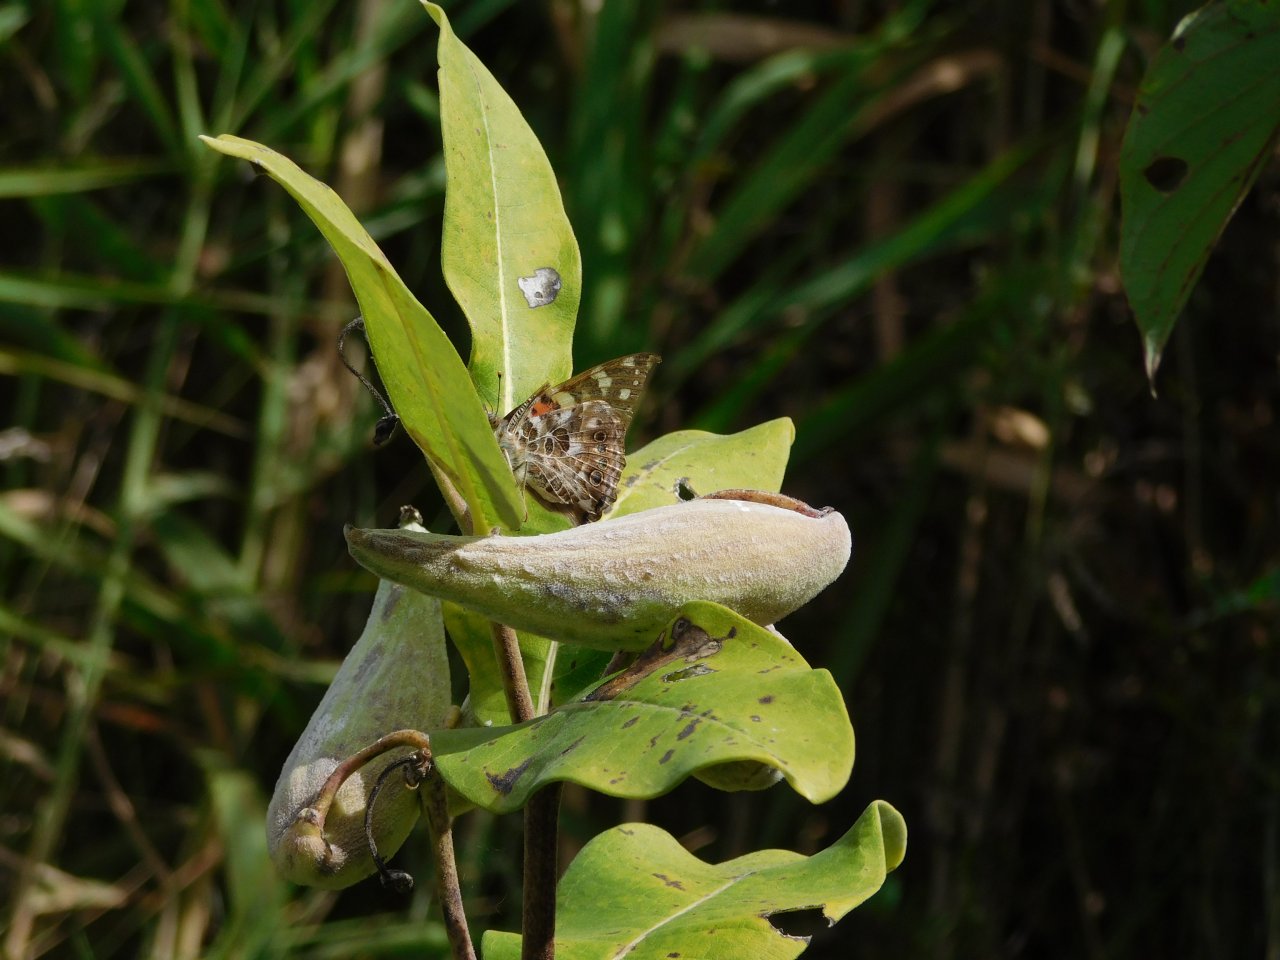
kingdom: Animalia
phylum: Arthropoda
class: Insecta
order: Lepidoptera
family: Nymphalidae
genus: Vanessa
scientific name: Vanessa cardui
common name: Painted Lady
